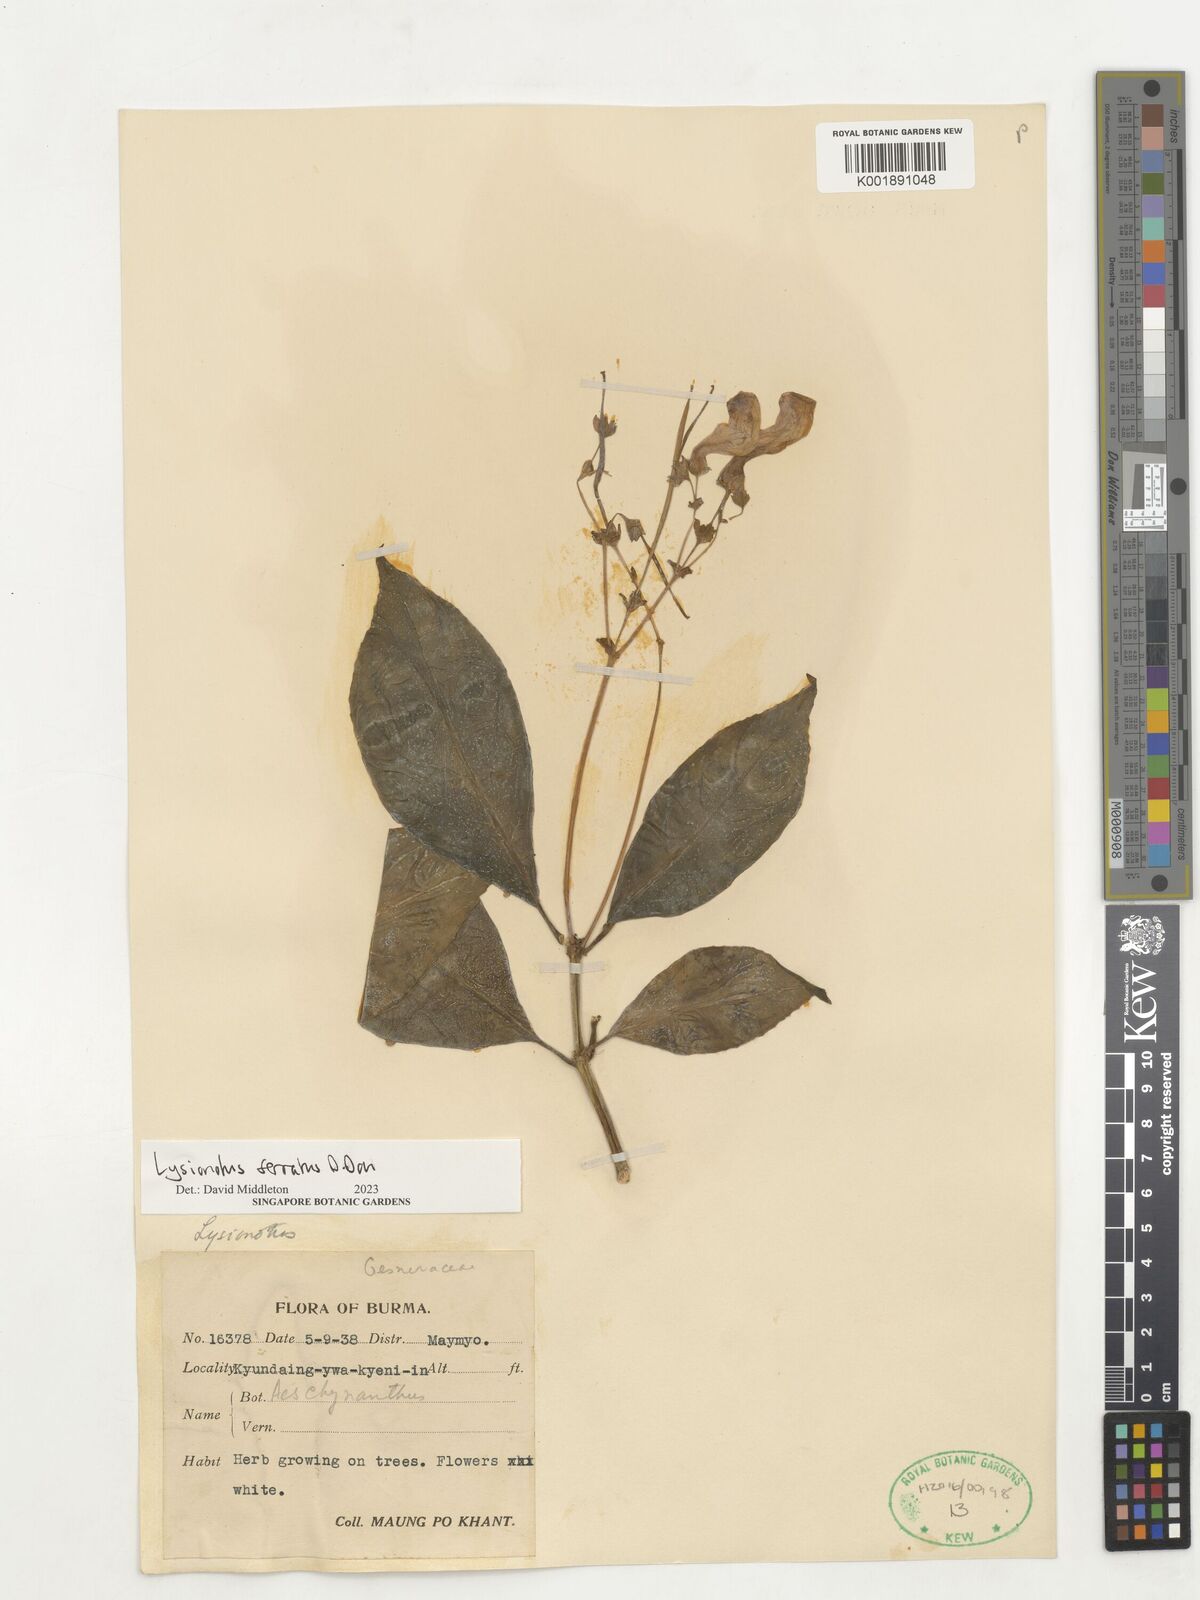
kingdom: Plantae
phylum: Tracheophyta
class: Magnoliopsida
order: Lamiales
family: Gesneriaceae
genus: Lysionotus
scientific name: Lysionotus serratus
